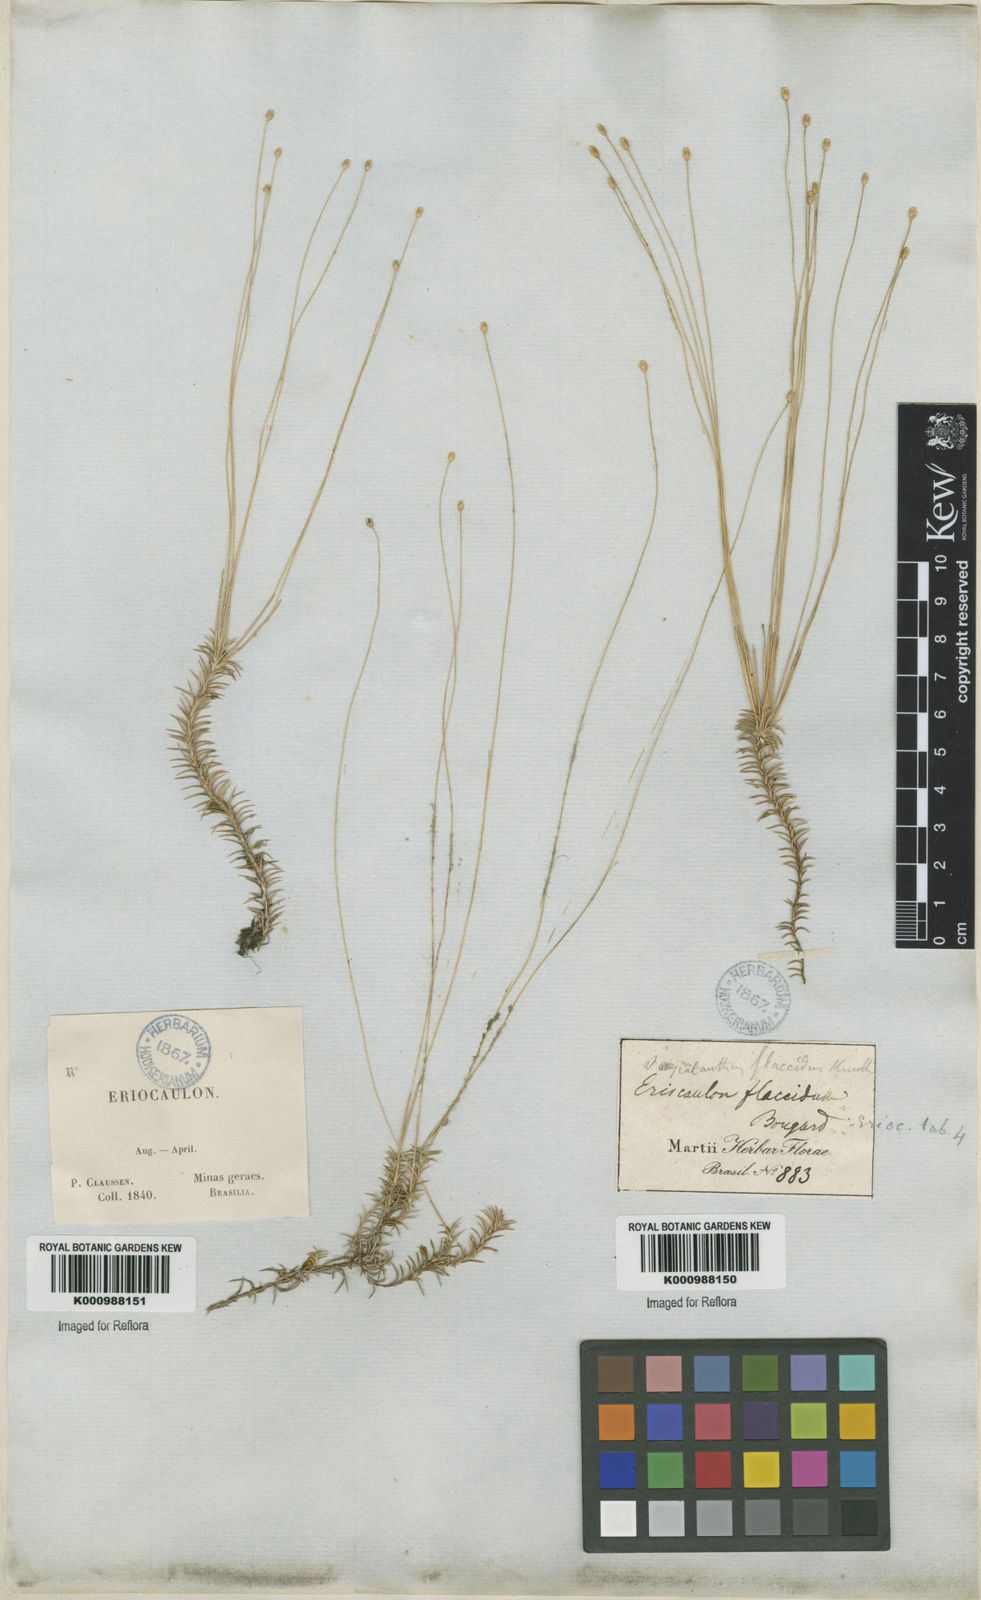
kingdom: Plantae
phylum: Tracheophyta
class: Liliopsida
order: Poales
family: Eriocaulaceae
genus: Paepalanthus
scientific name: Paepalanthus flaccidus
